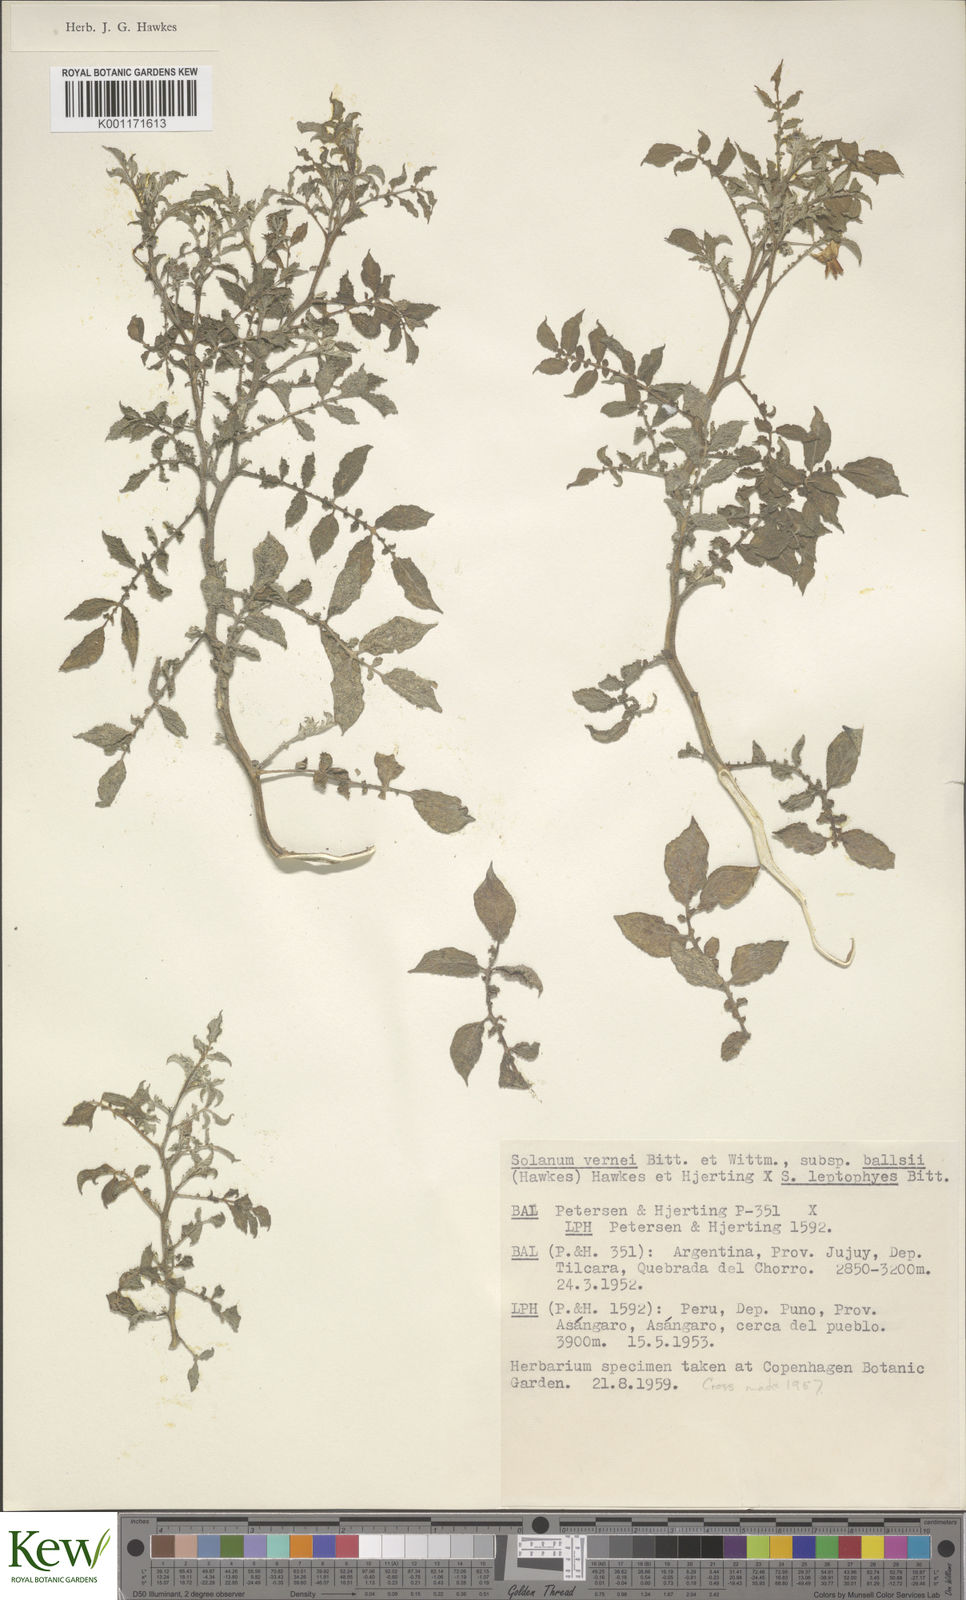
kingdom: Plantae
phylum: Tracheophyta
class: Magnoliopsida
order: Solanales
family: Solanaceae
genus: Solanum
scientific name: Solanum vernei
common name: Purple potato
